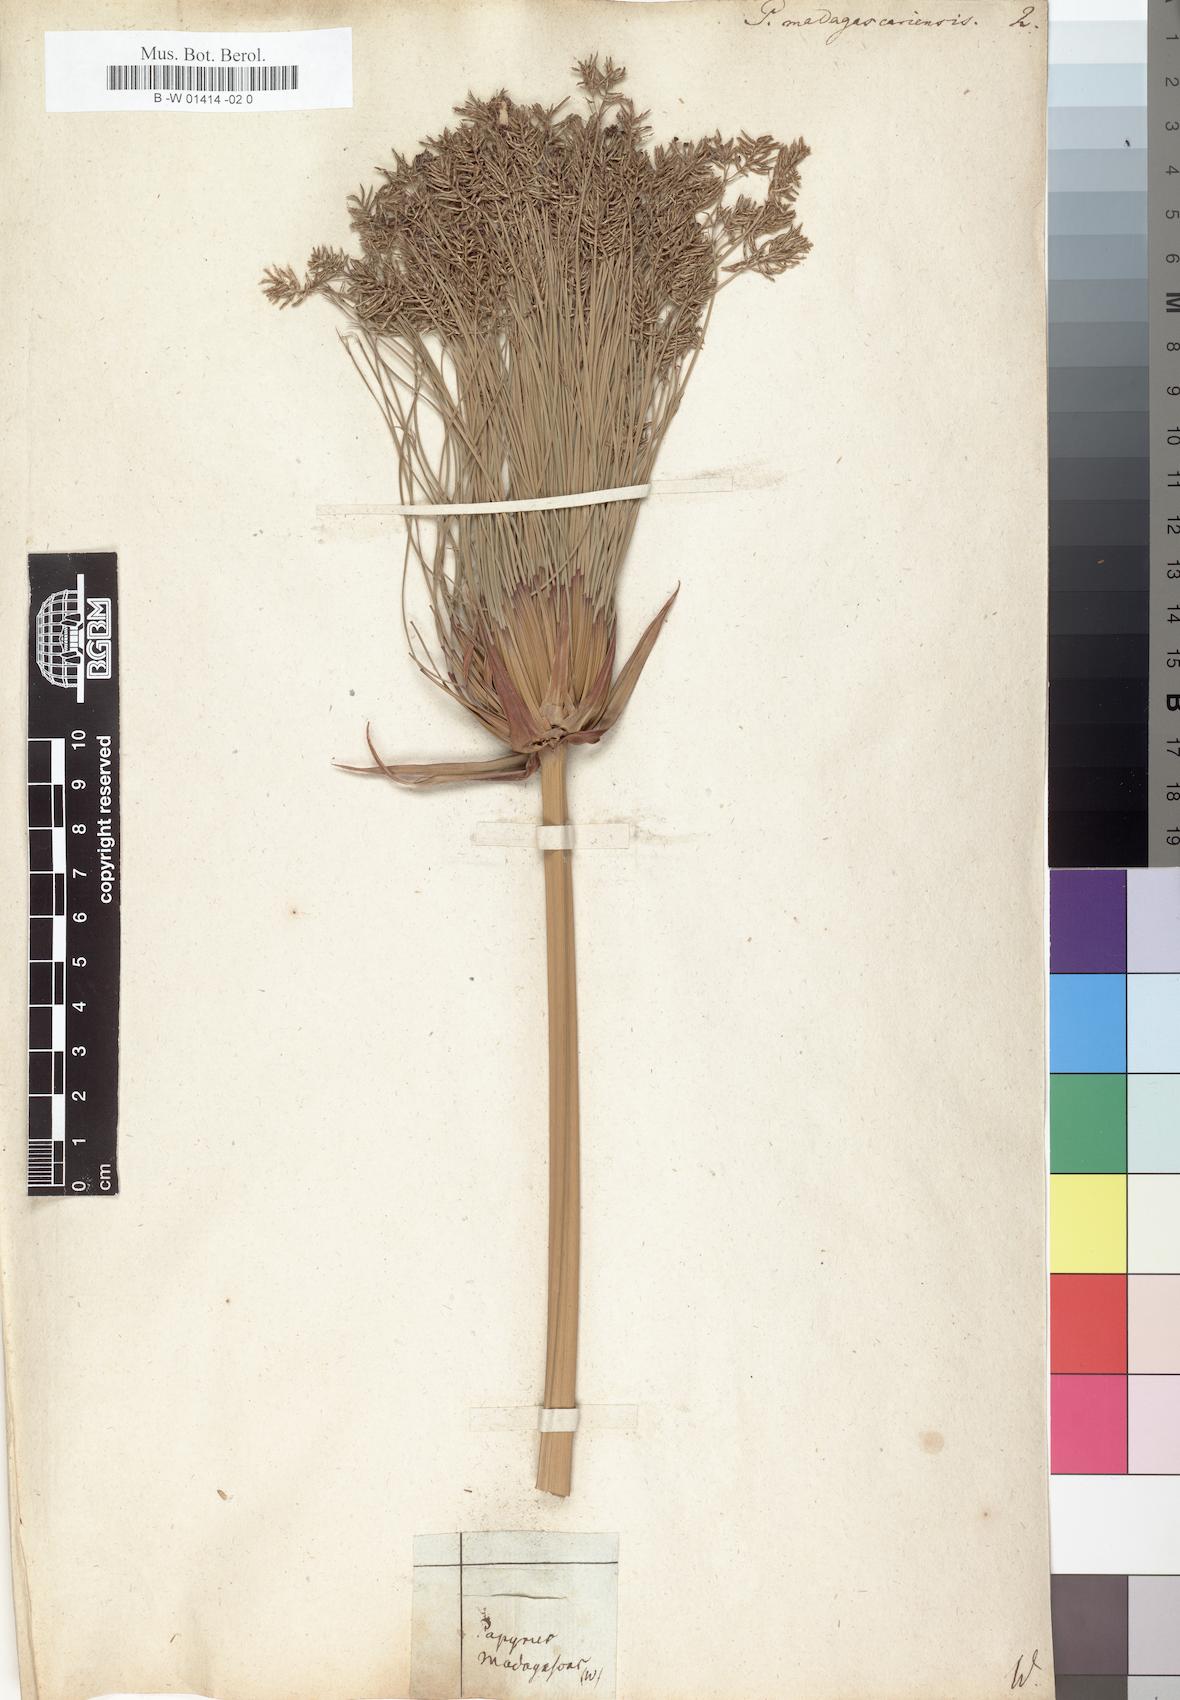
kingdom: Plantae
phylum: Tracheophyta
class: Liliopsida
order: Poales
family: Cyperaceae
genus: Cyperus
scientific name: Cyperus papyrus
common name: Papyrus
